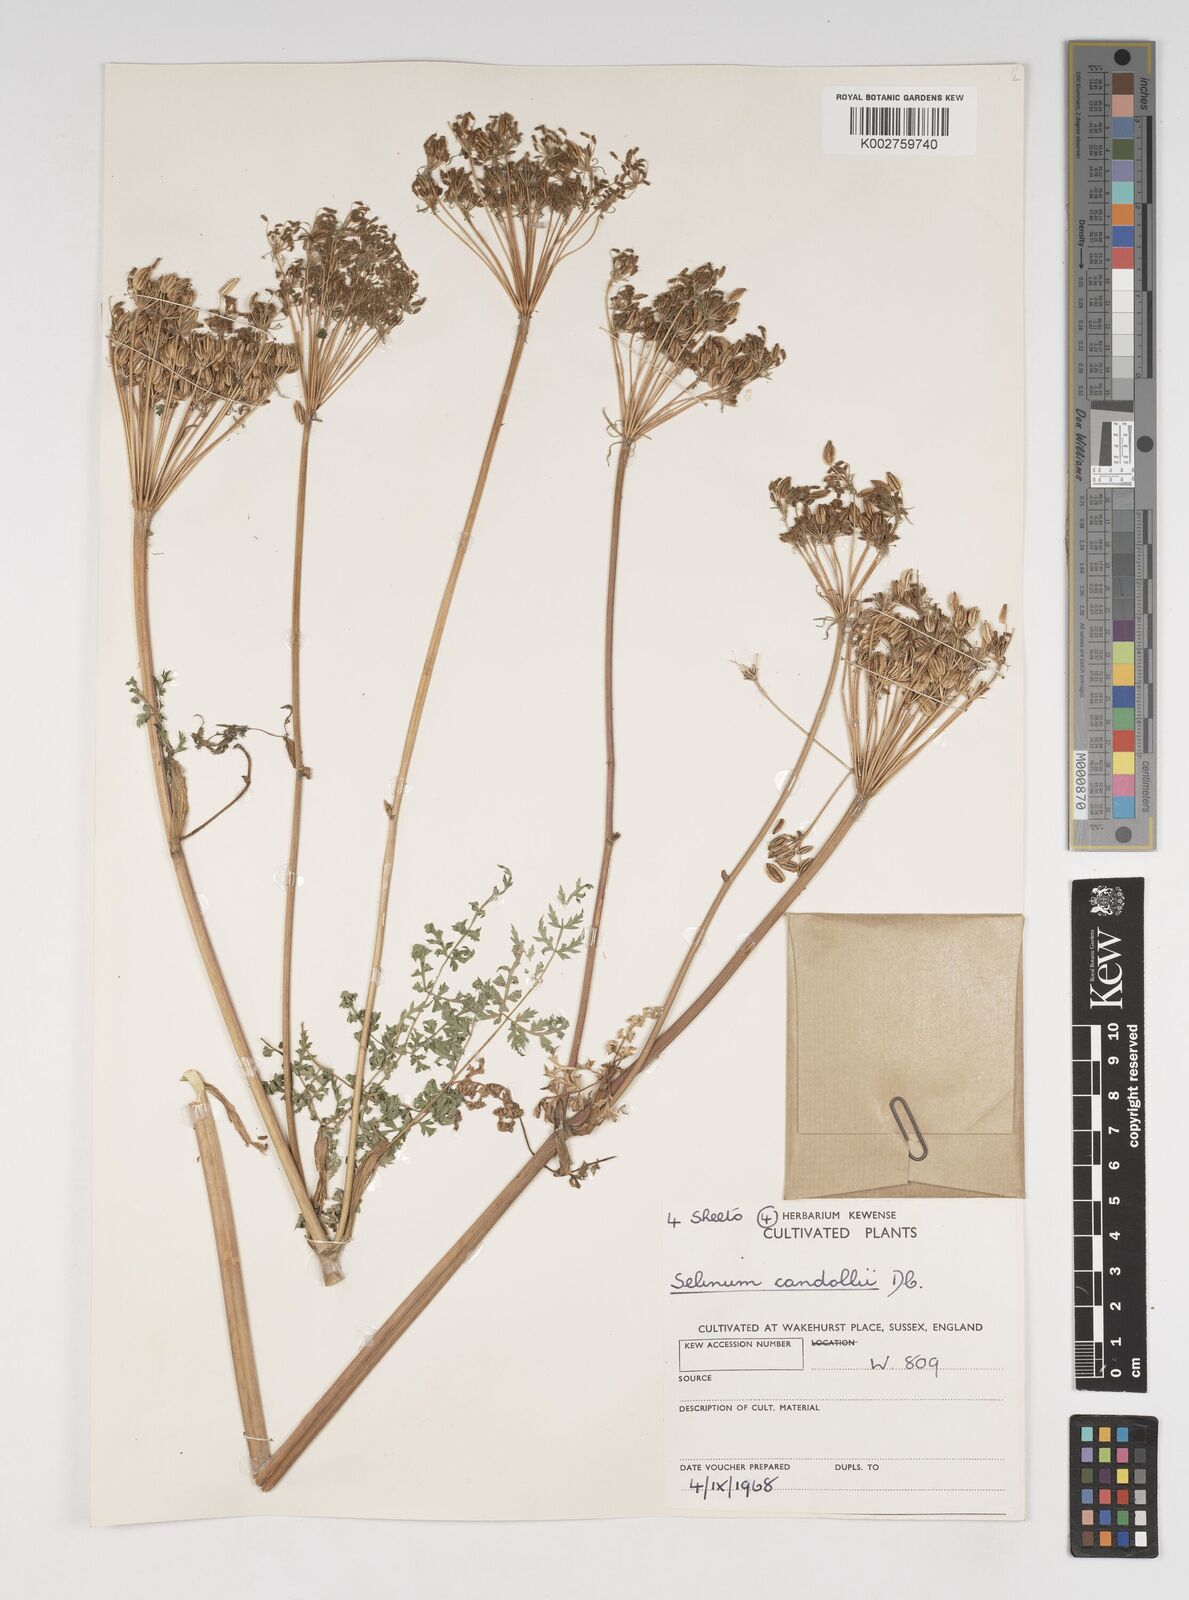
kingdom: Plantae
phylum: Tracheophyta
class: Magnoliopsida
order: Apiales
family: Apiaceae
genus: Oreocome
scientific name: Oreocome candollei
